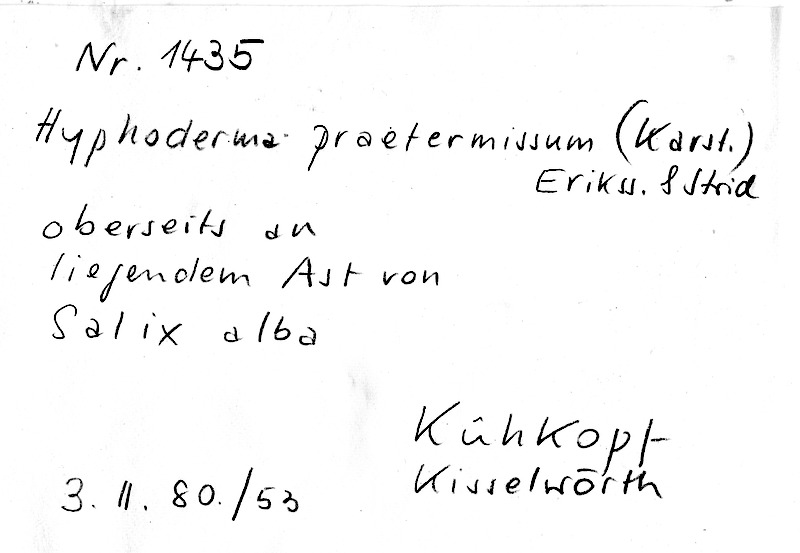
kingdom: Plantae
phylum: Tracheophyta
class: Magnoliopsida
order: Malpighiales
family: Salicaceae
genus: Salix
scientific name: Salix alba
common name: White willow
